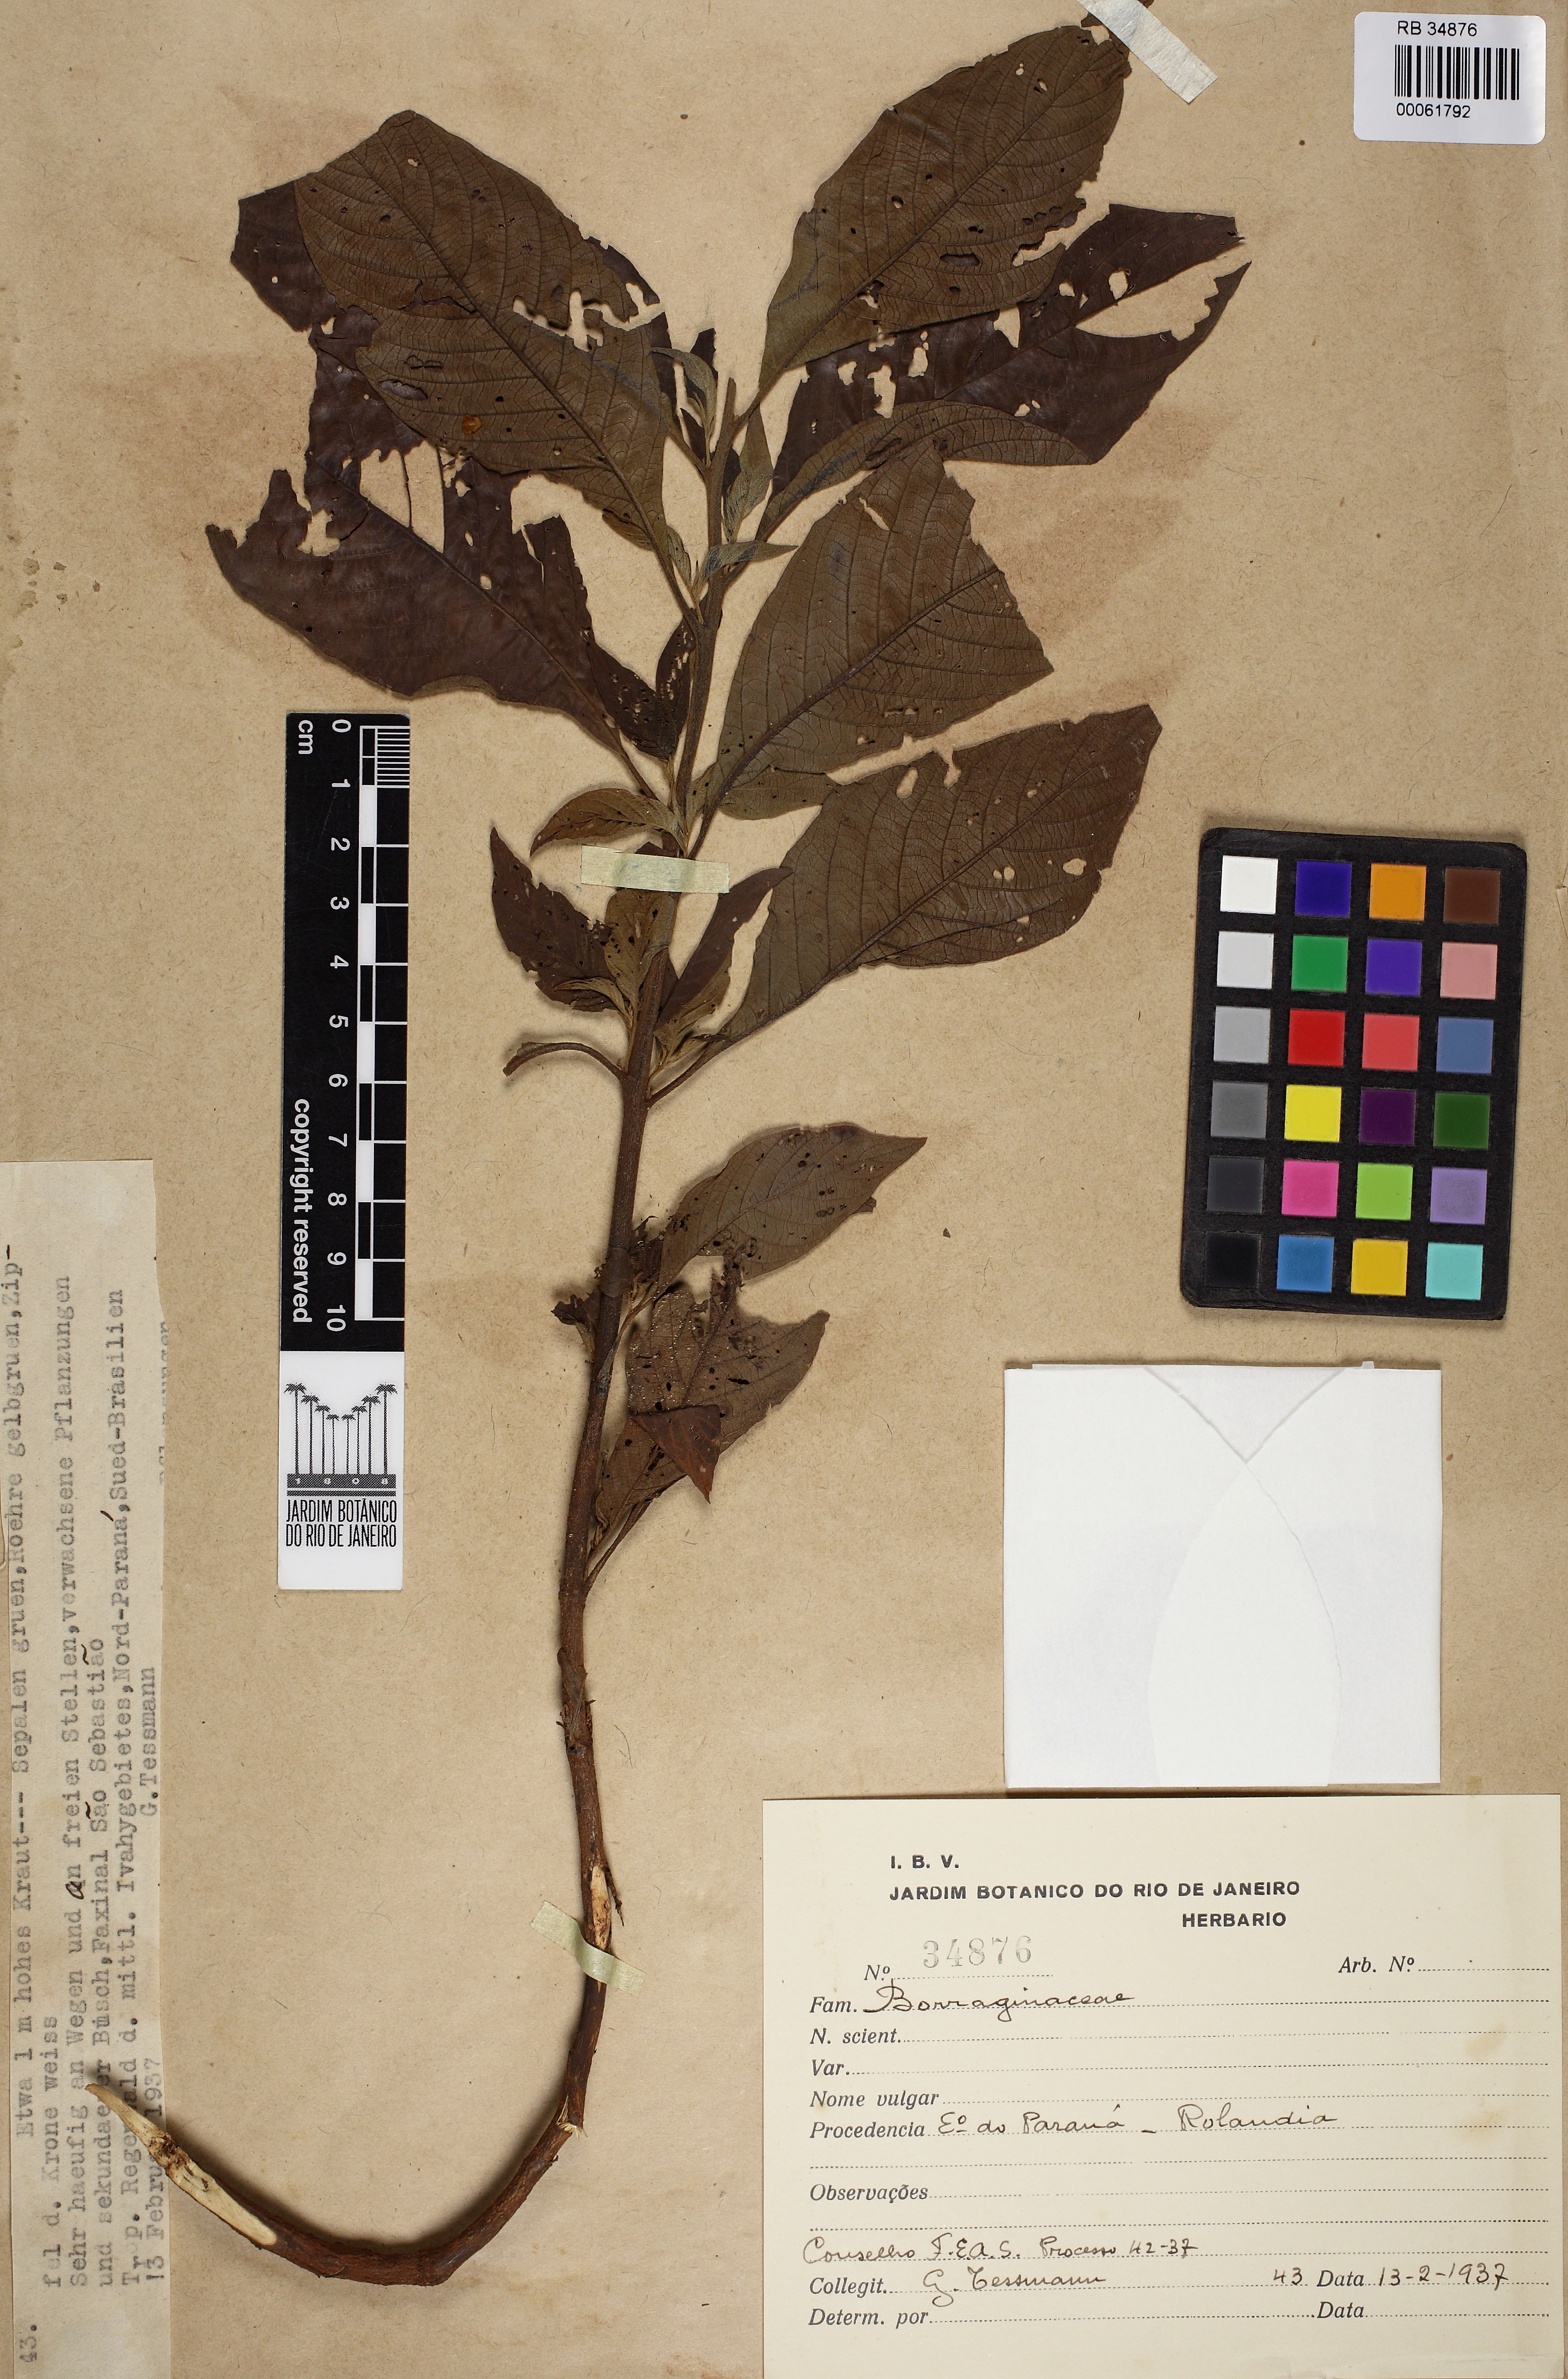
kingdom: Plantae
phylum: Tracheophyta
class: Magnoliopsida
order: Boraginales
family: Heliotropiaceae
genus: Heliotropium
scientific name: Heliotropium transalpinum
